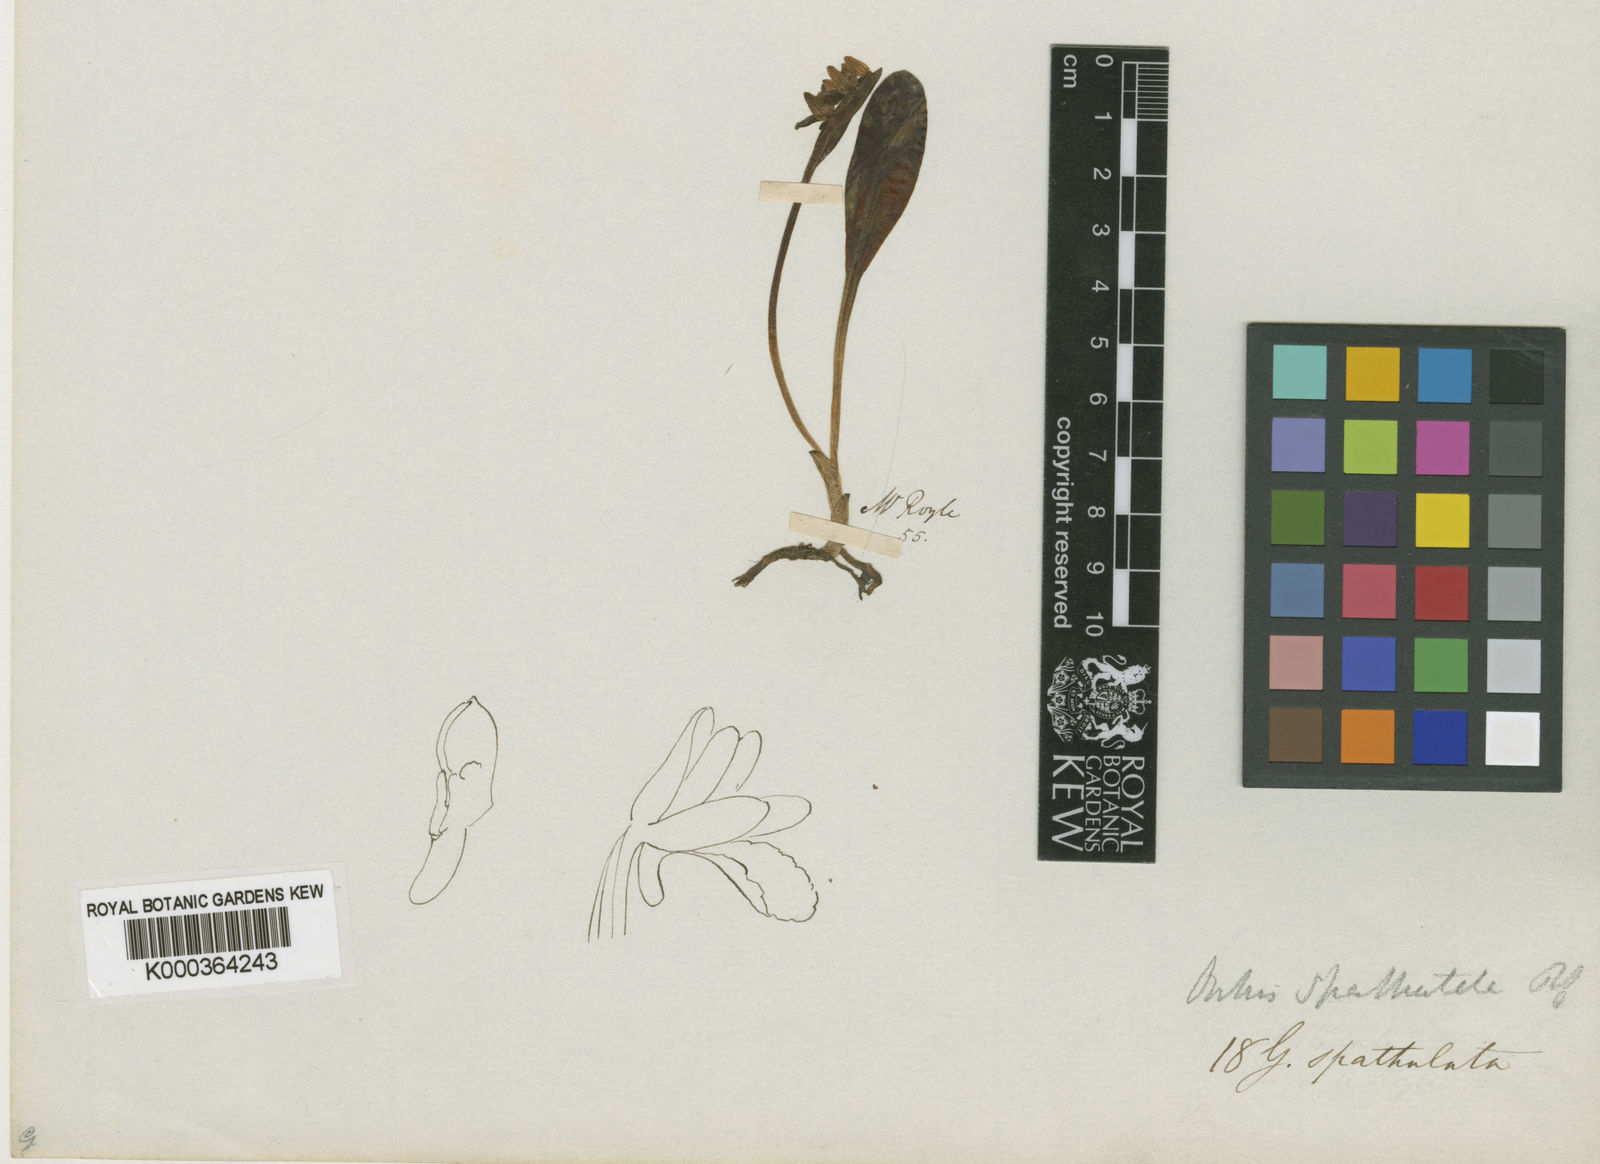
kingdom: Plantae
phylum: Tracheophyta
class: Liliopsida
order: Asparagales
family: Orchidaceae
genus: Galearis
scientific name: Galearis spathulata
